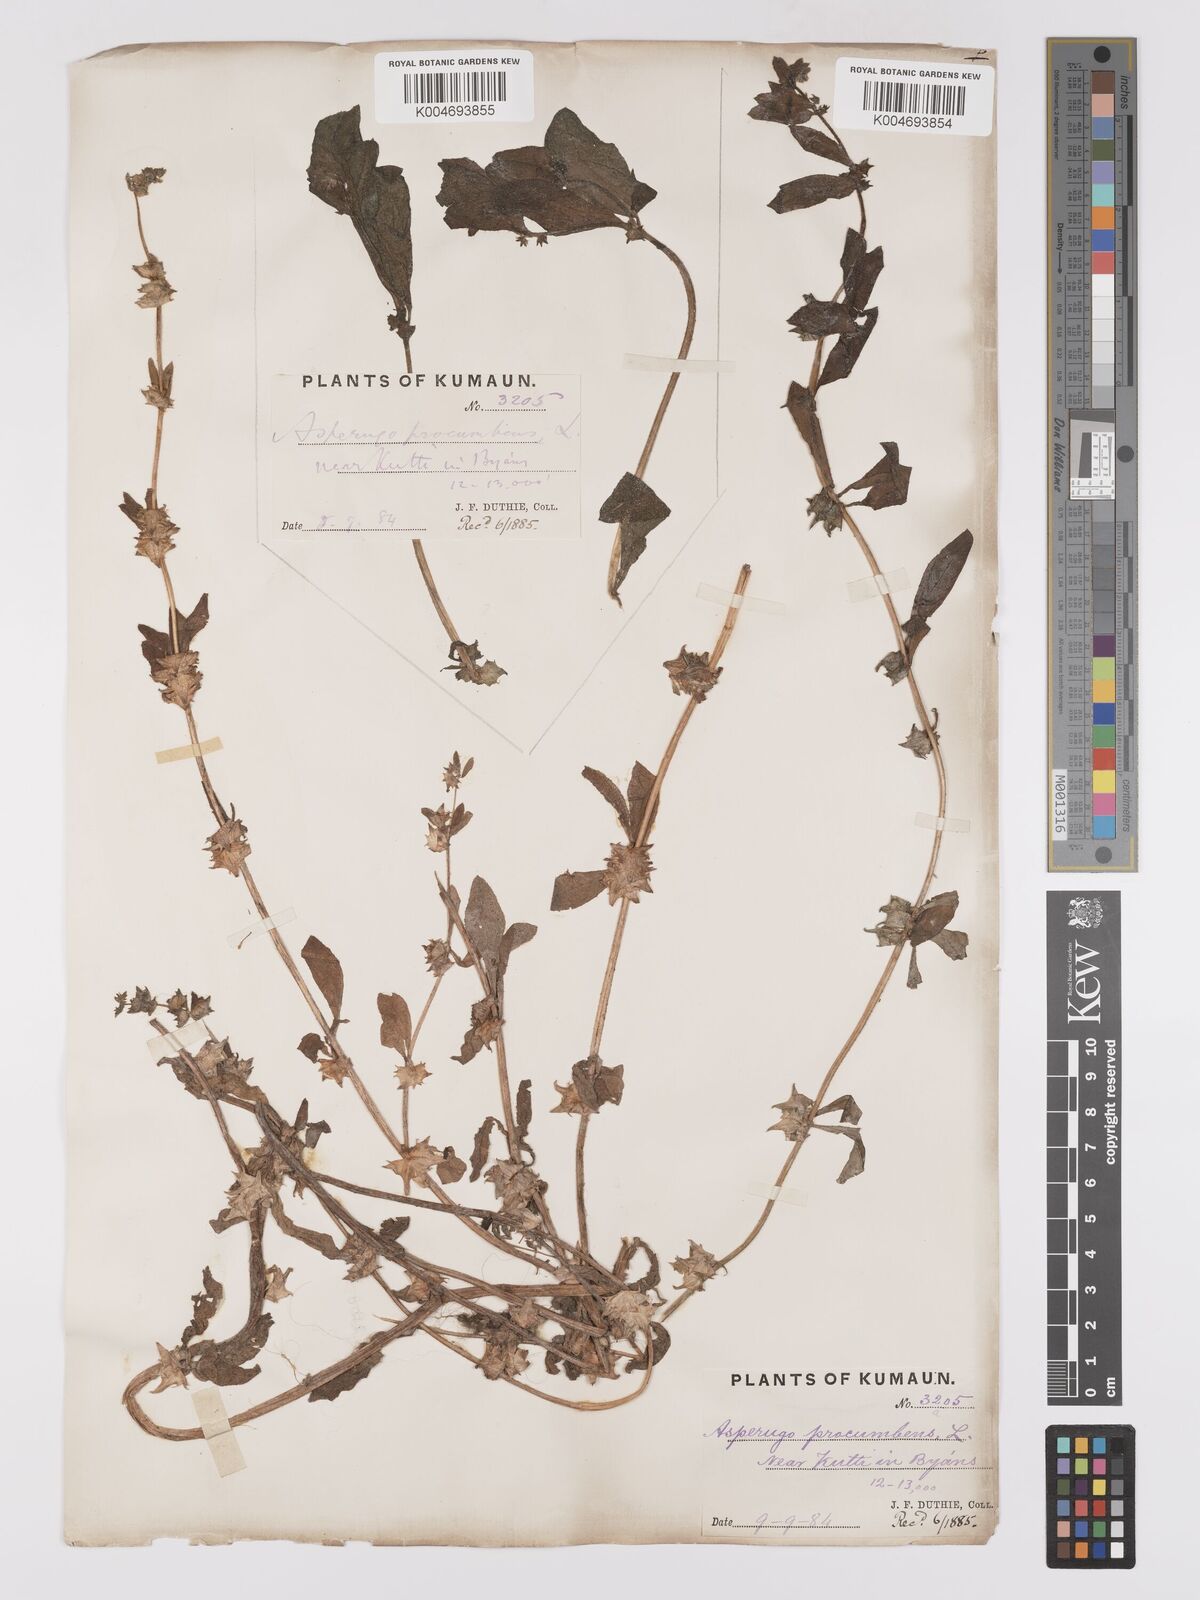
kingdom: Plantae
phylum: Tracheophyta
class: Magnoliopsida
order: Boraginales
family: Boraginaceae
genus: Asperugo
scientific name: Asperugo procumbens
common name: Madwort
